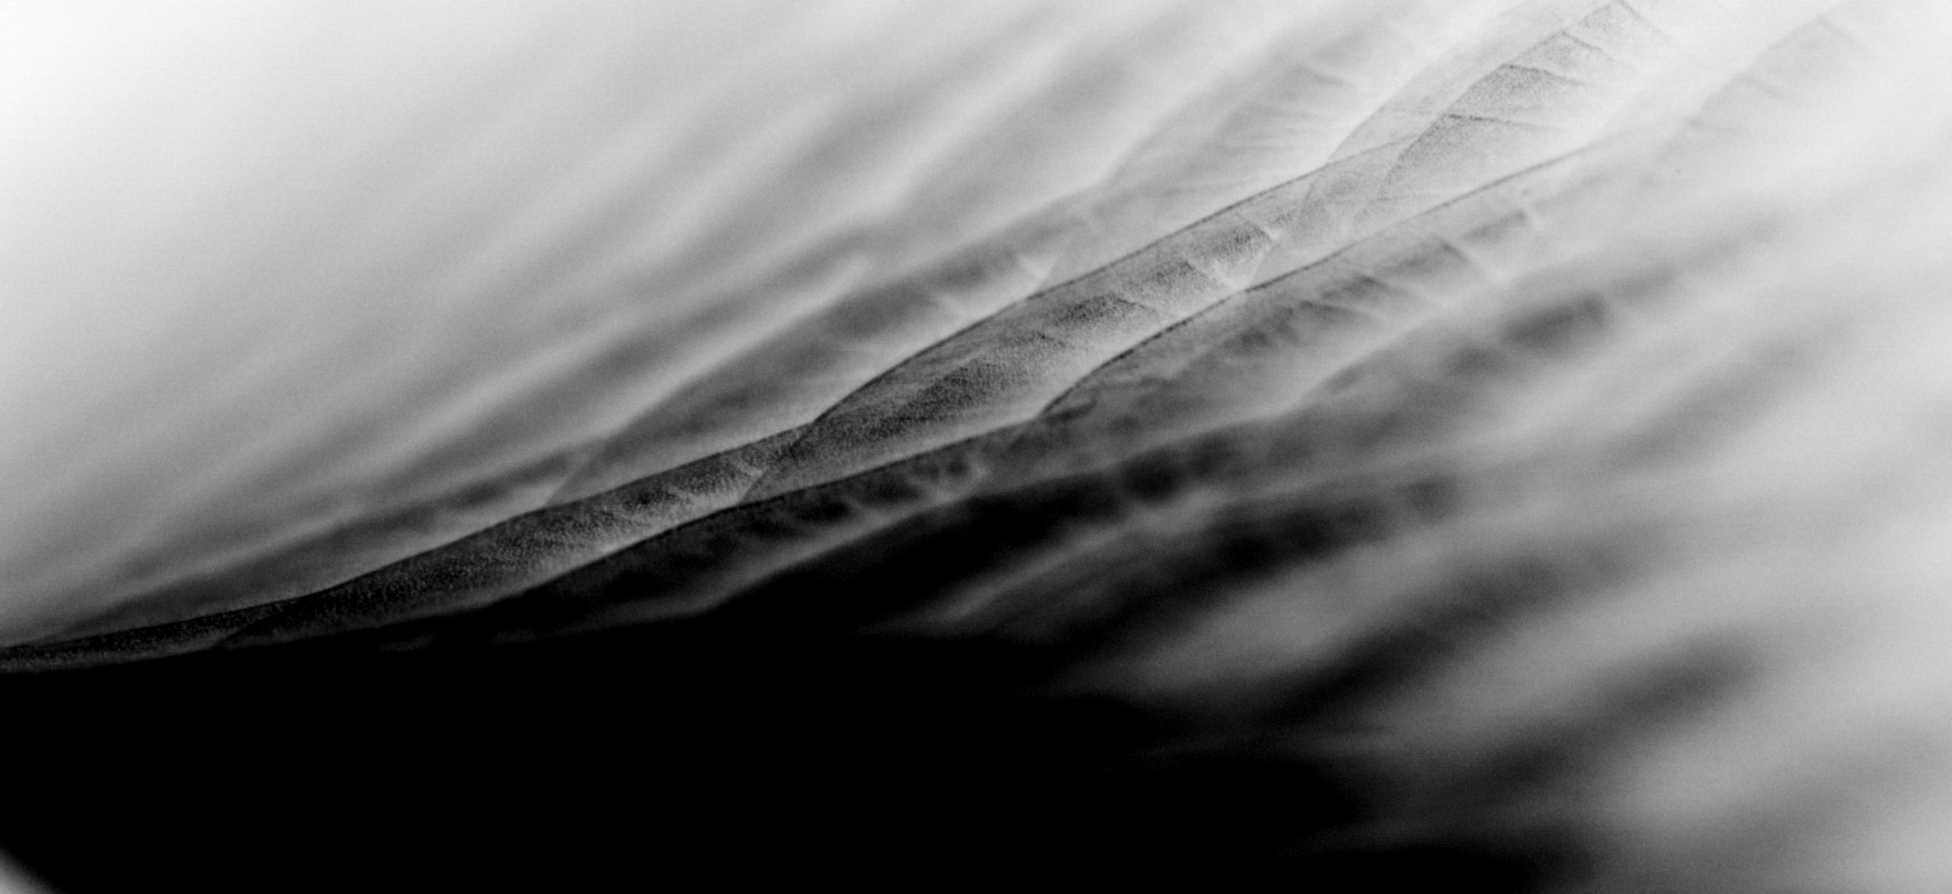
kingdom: Animalia
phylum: Chordata
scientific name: Chordata
